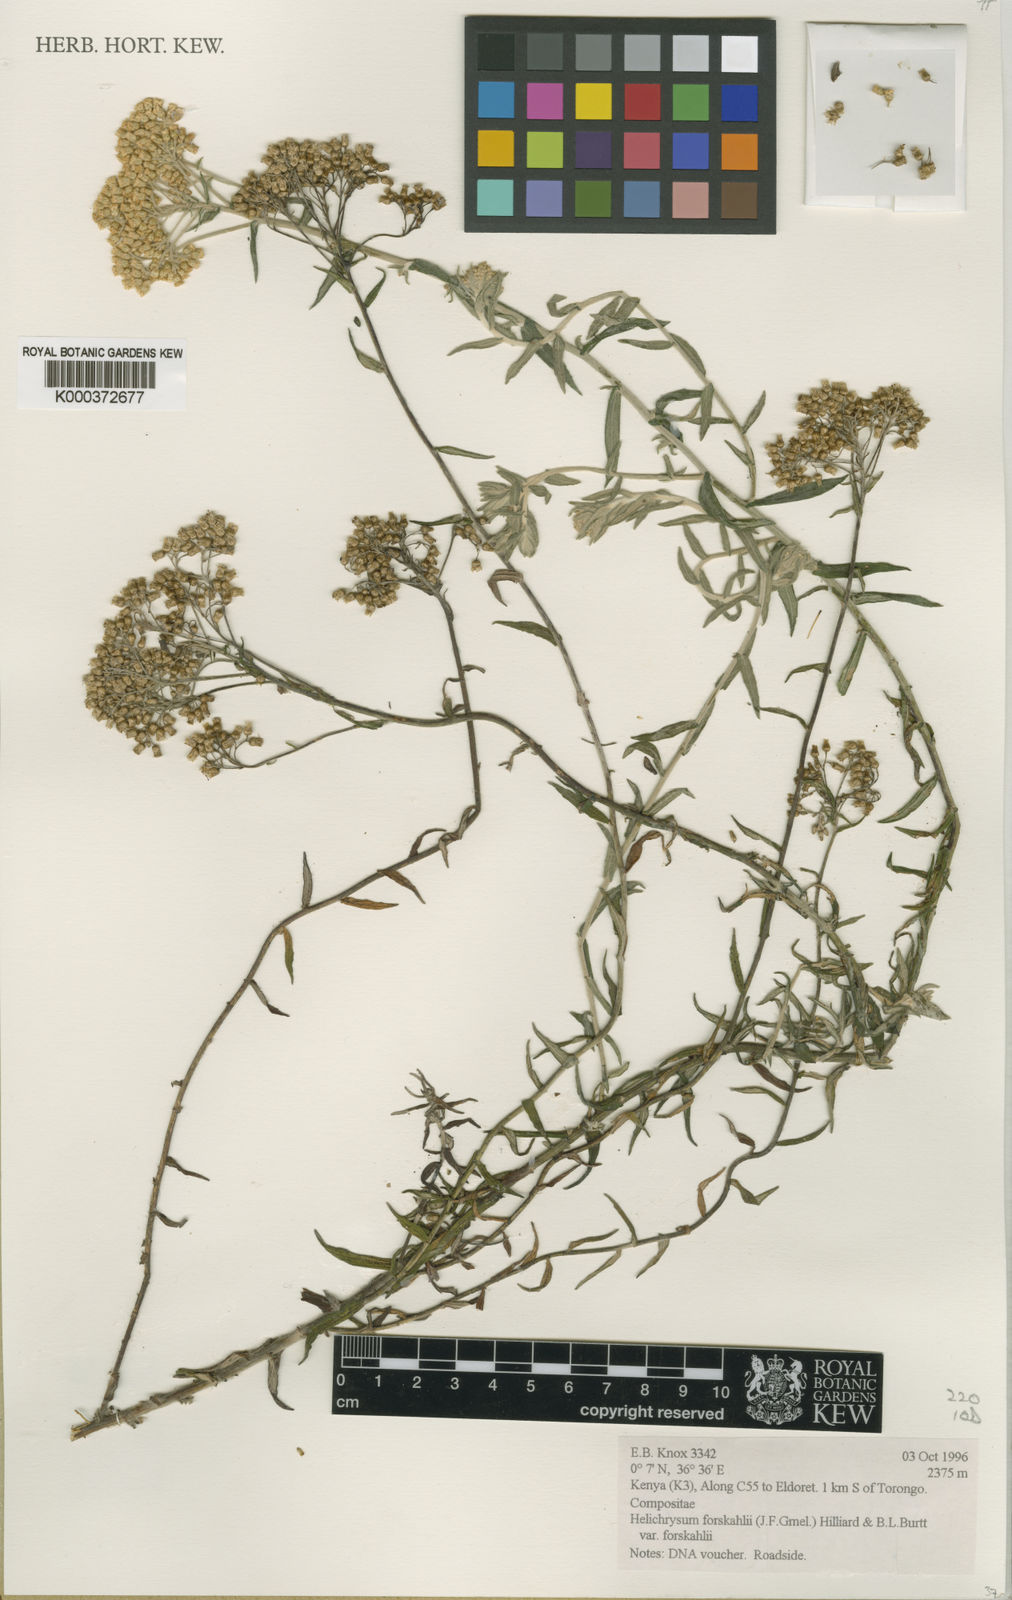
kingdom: Plantae
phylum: Tracheophyta
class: Magnoliopsida
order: Asterales
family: Asteraceae
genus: Helichrysum
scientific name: Helichrysum forskahlii
